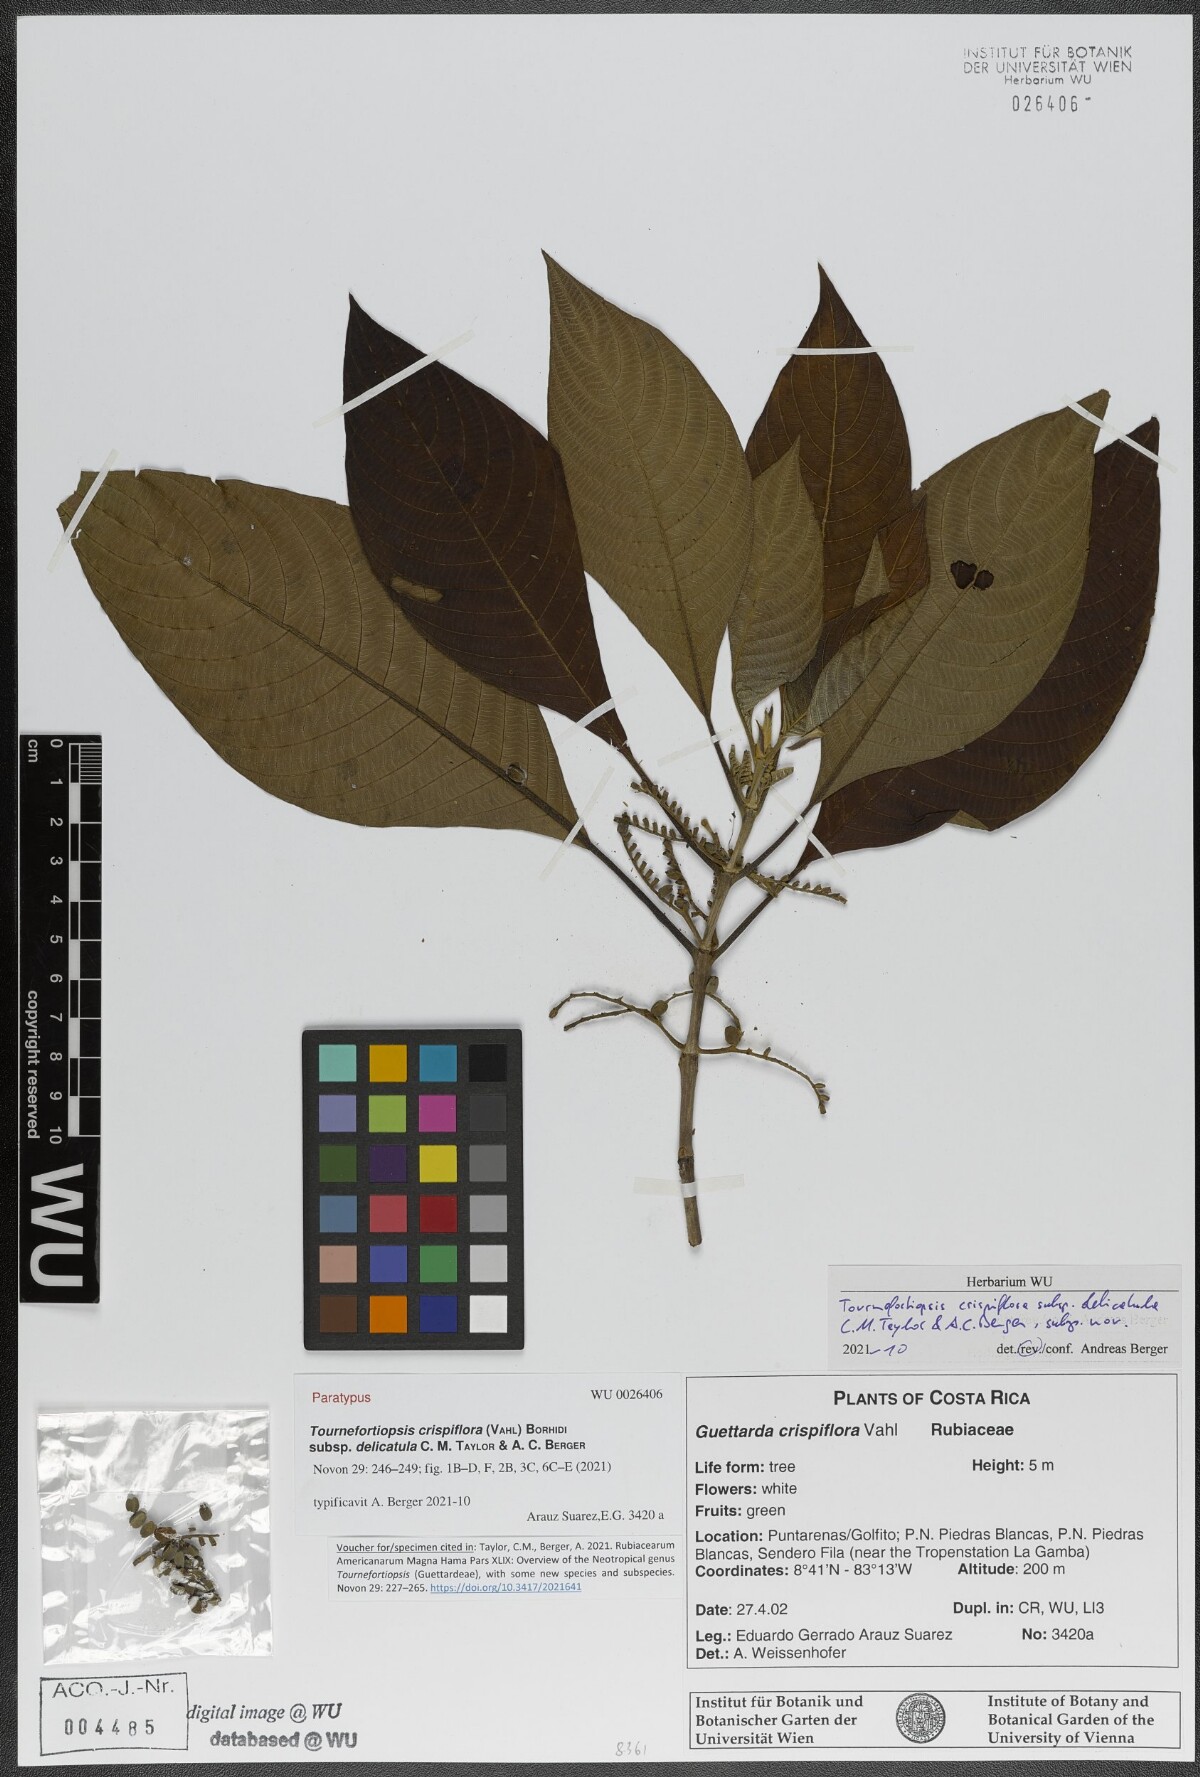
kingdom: Plantae
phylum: Tracheophyta
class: Magnoliopsida
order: Gentianales
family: Rubiaceae
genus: Tournefortiopsis
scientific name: Tournefortiopsis crispiflora
